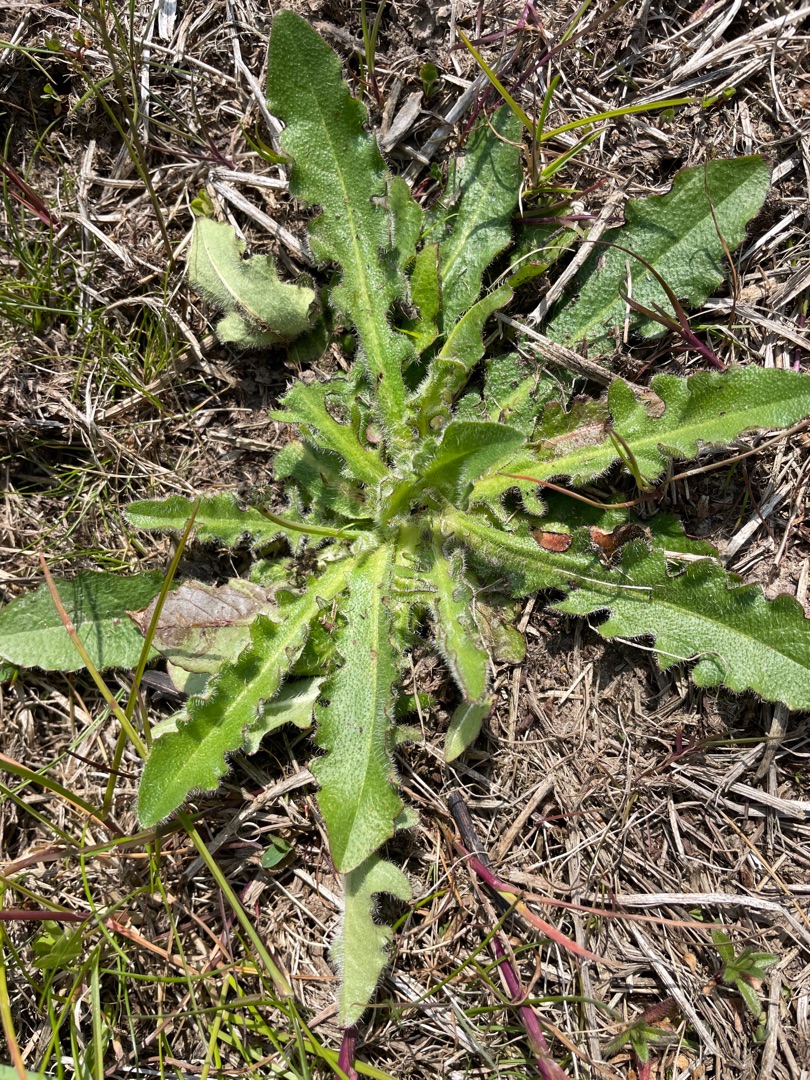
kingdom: Plantae
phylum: Tracheophyta
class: Magnoliopsida
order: Asterales
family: Asteraceae
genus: Hypochaeris
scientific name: Hypochaeris radicata
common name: Almindelig kongepen
